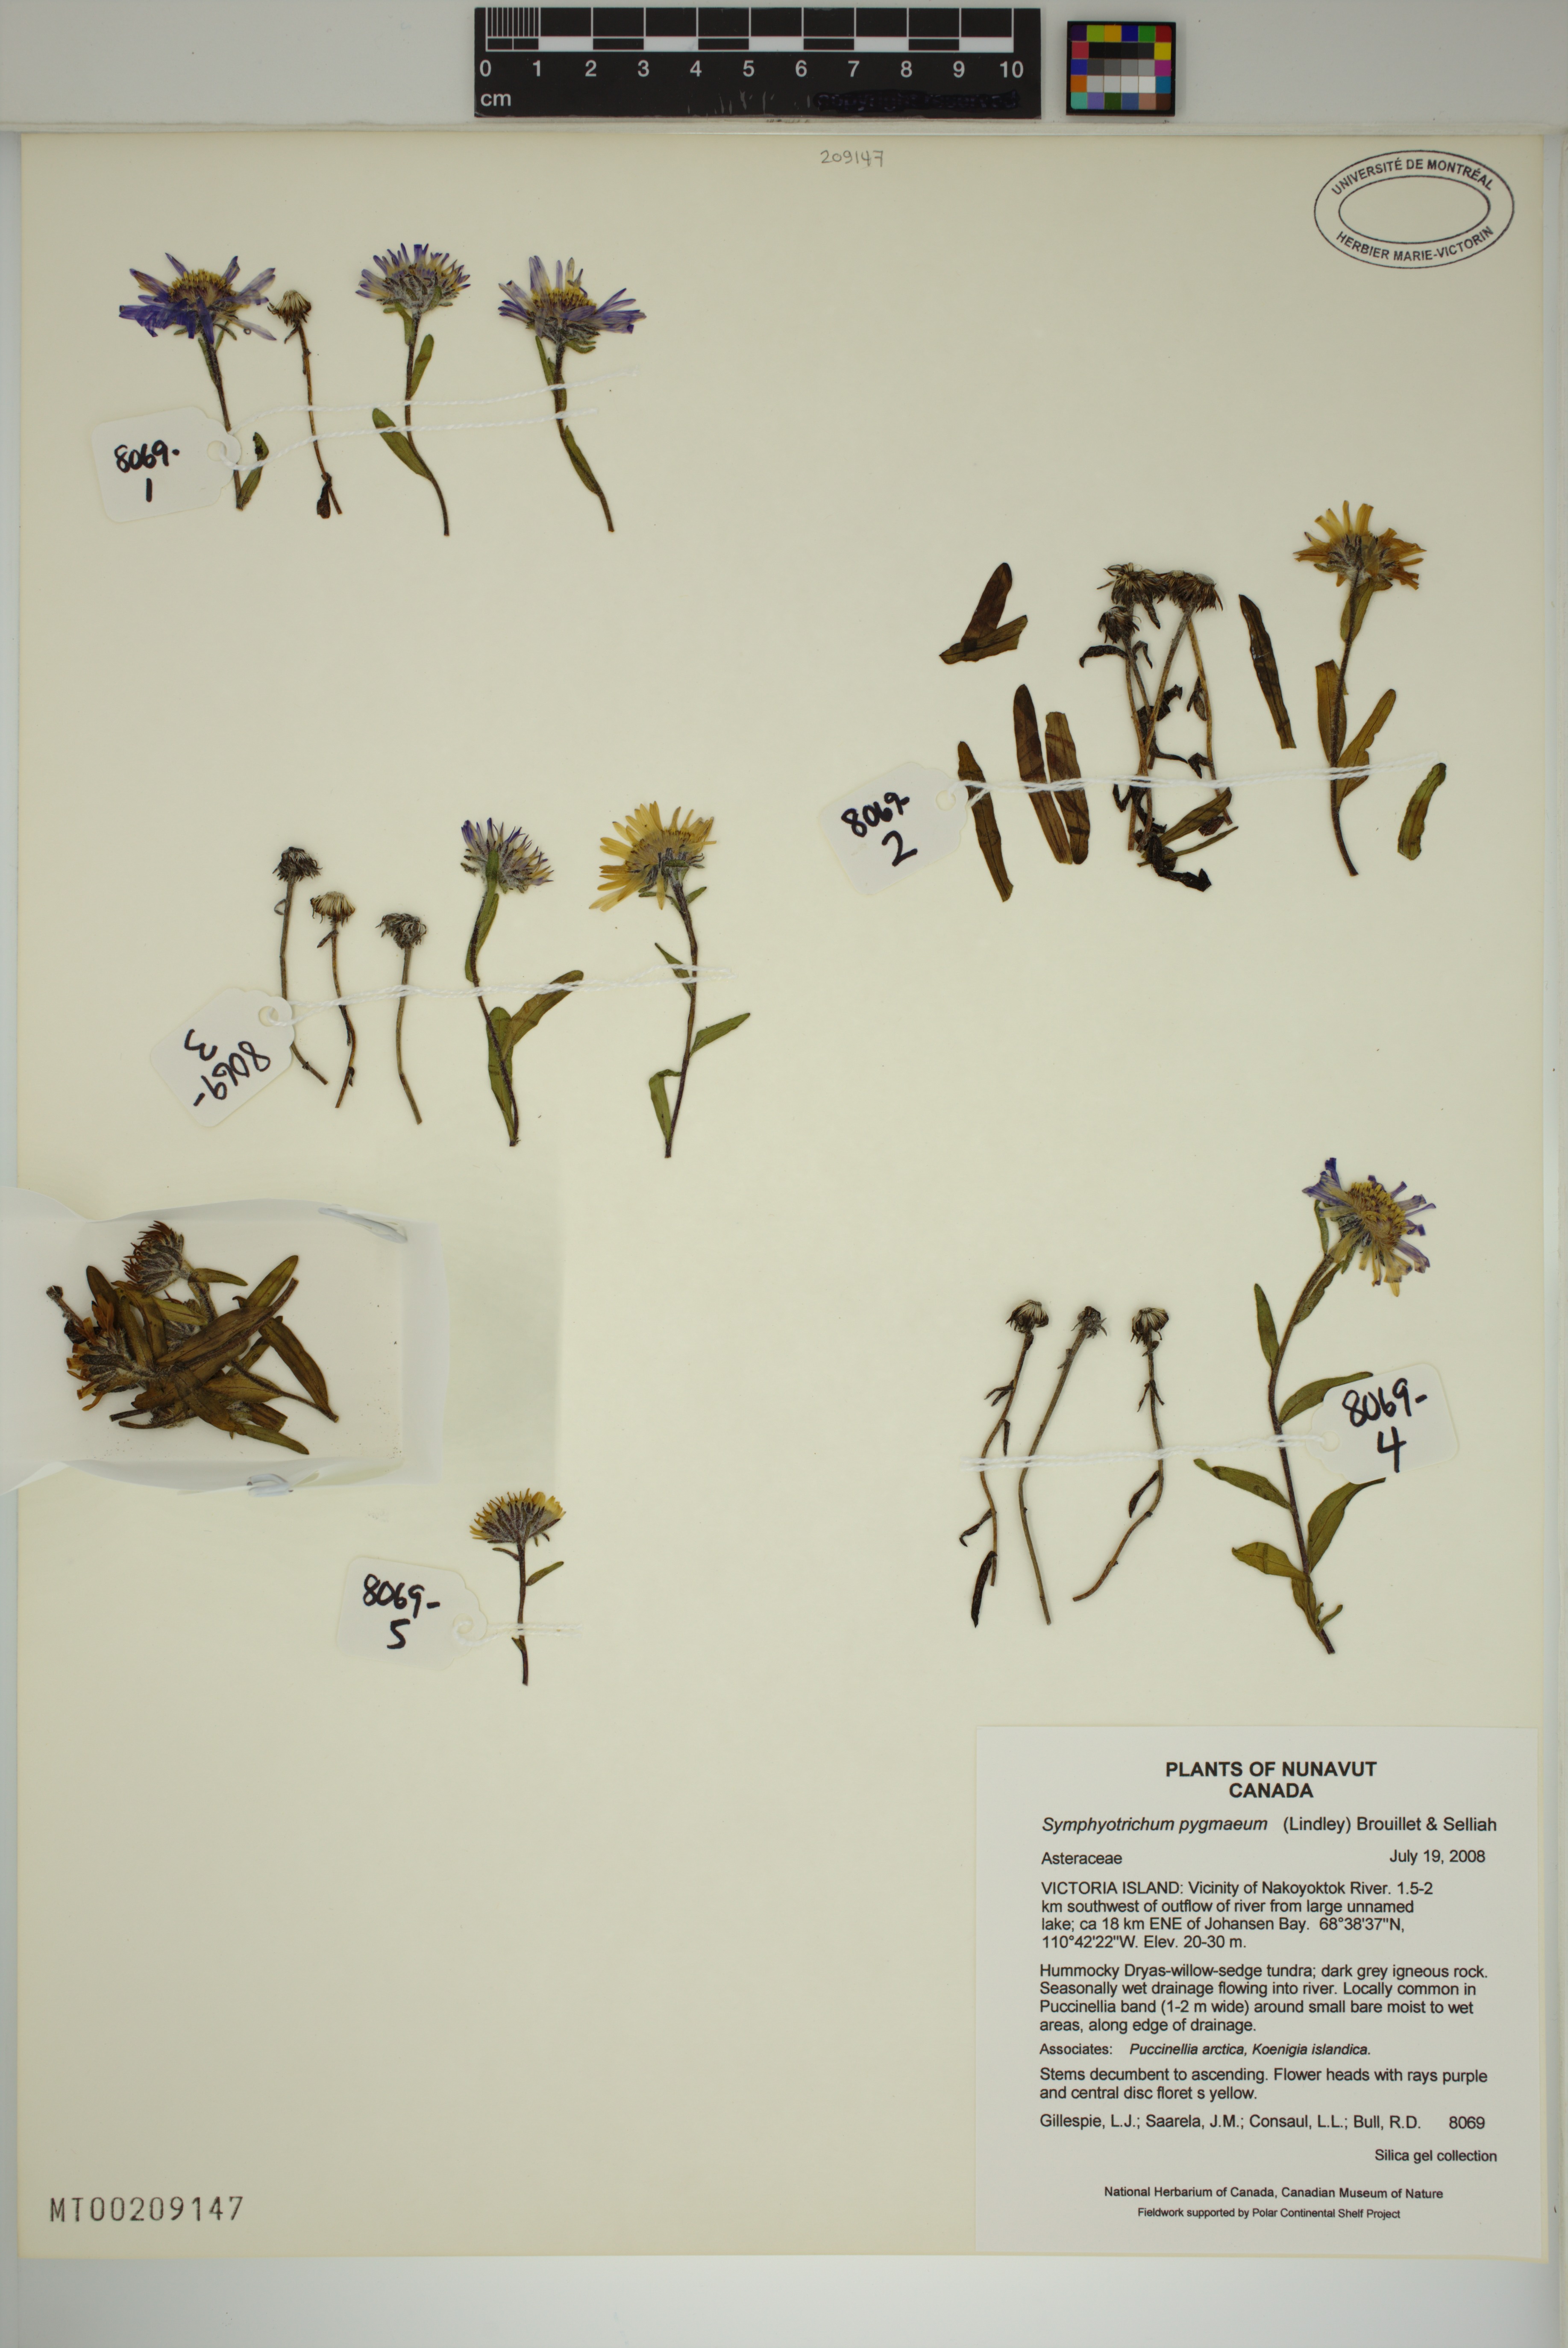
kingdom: Plantae
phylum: Tracheophyta
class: Magnoliopsida
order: Asterales
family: Asteraceae
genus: Symphyotrichum
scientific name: Symphyotrichum pygmaeum
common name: Pygmy aster
